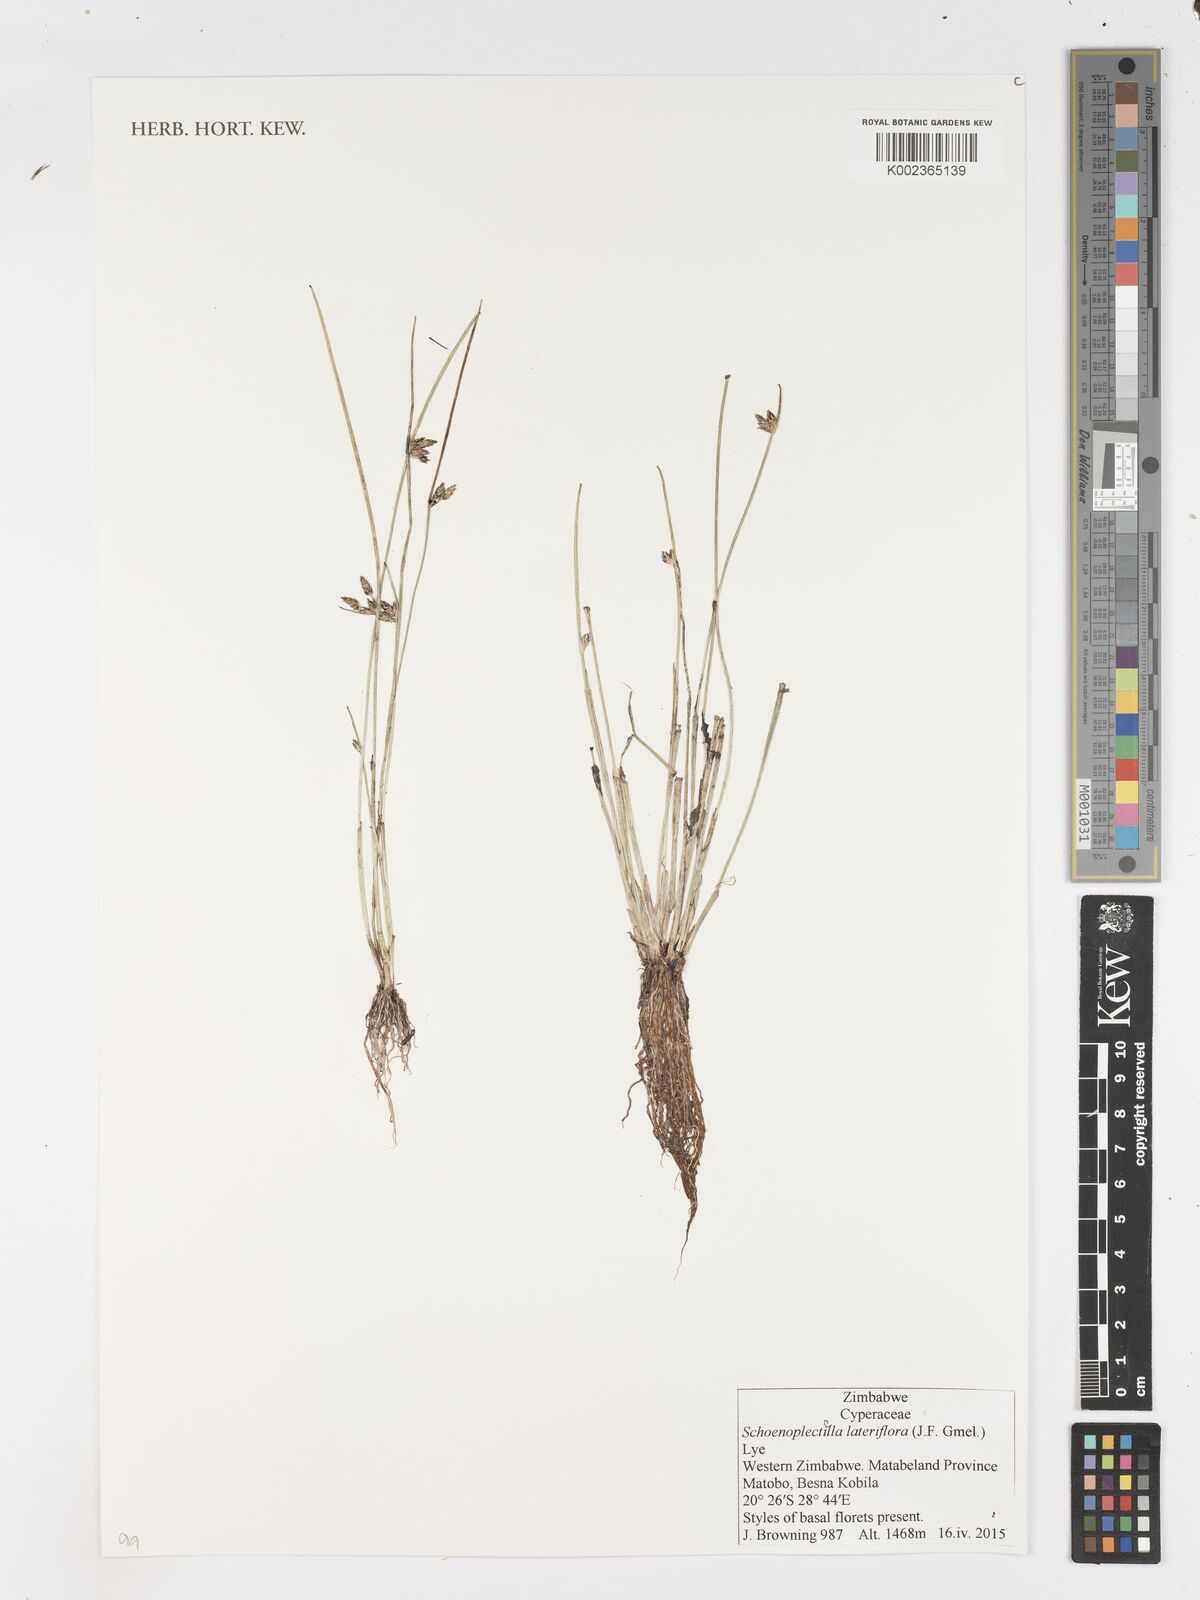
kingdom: Plantae
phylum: Tracheophyta
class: Liliopsida
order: Poales
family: Cyperaceae
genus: Schoenoplectiella
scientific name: Schoenoplectiella lateriflora
